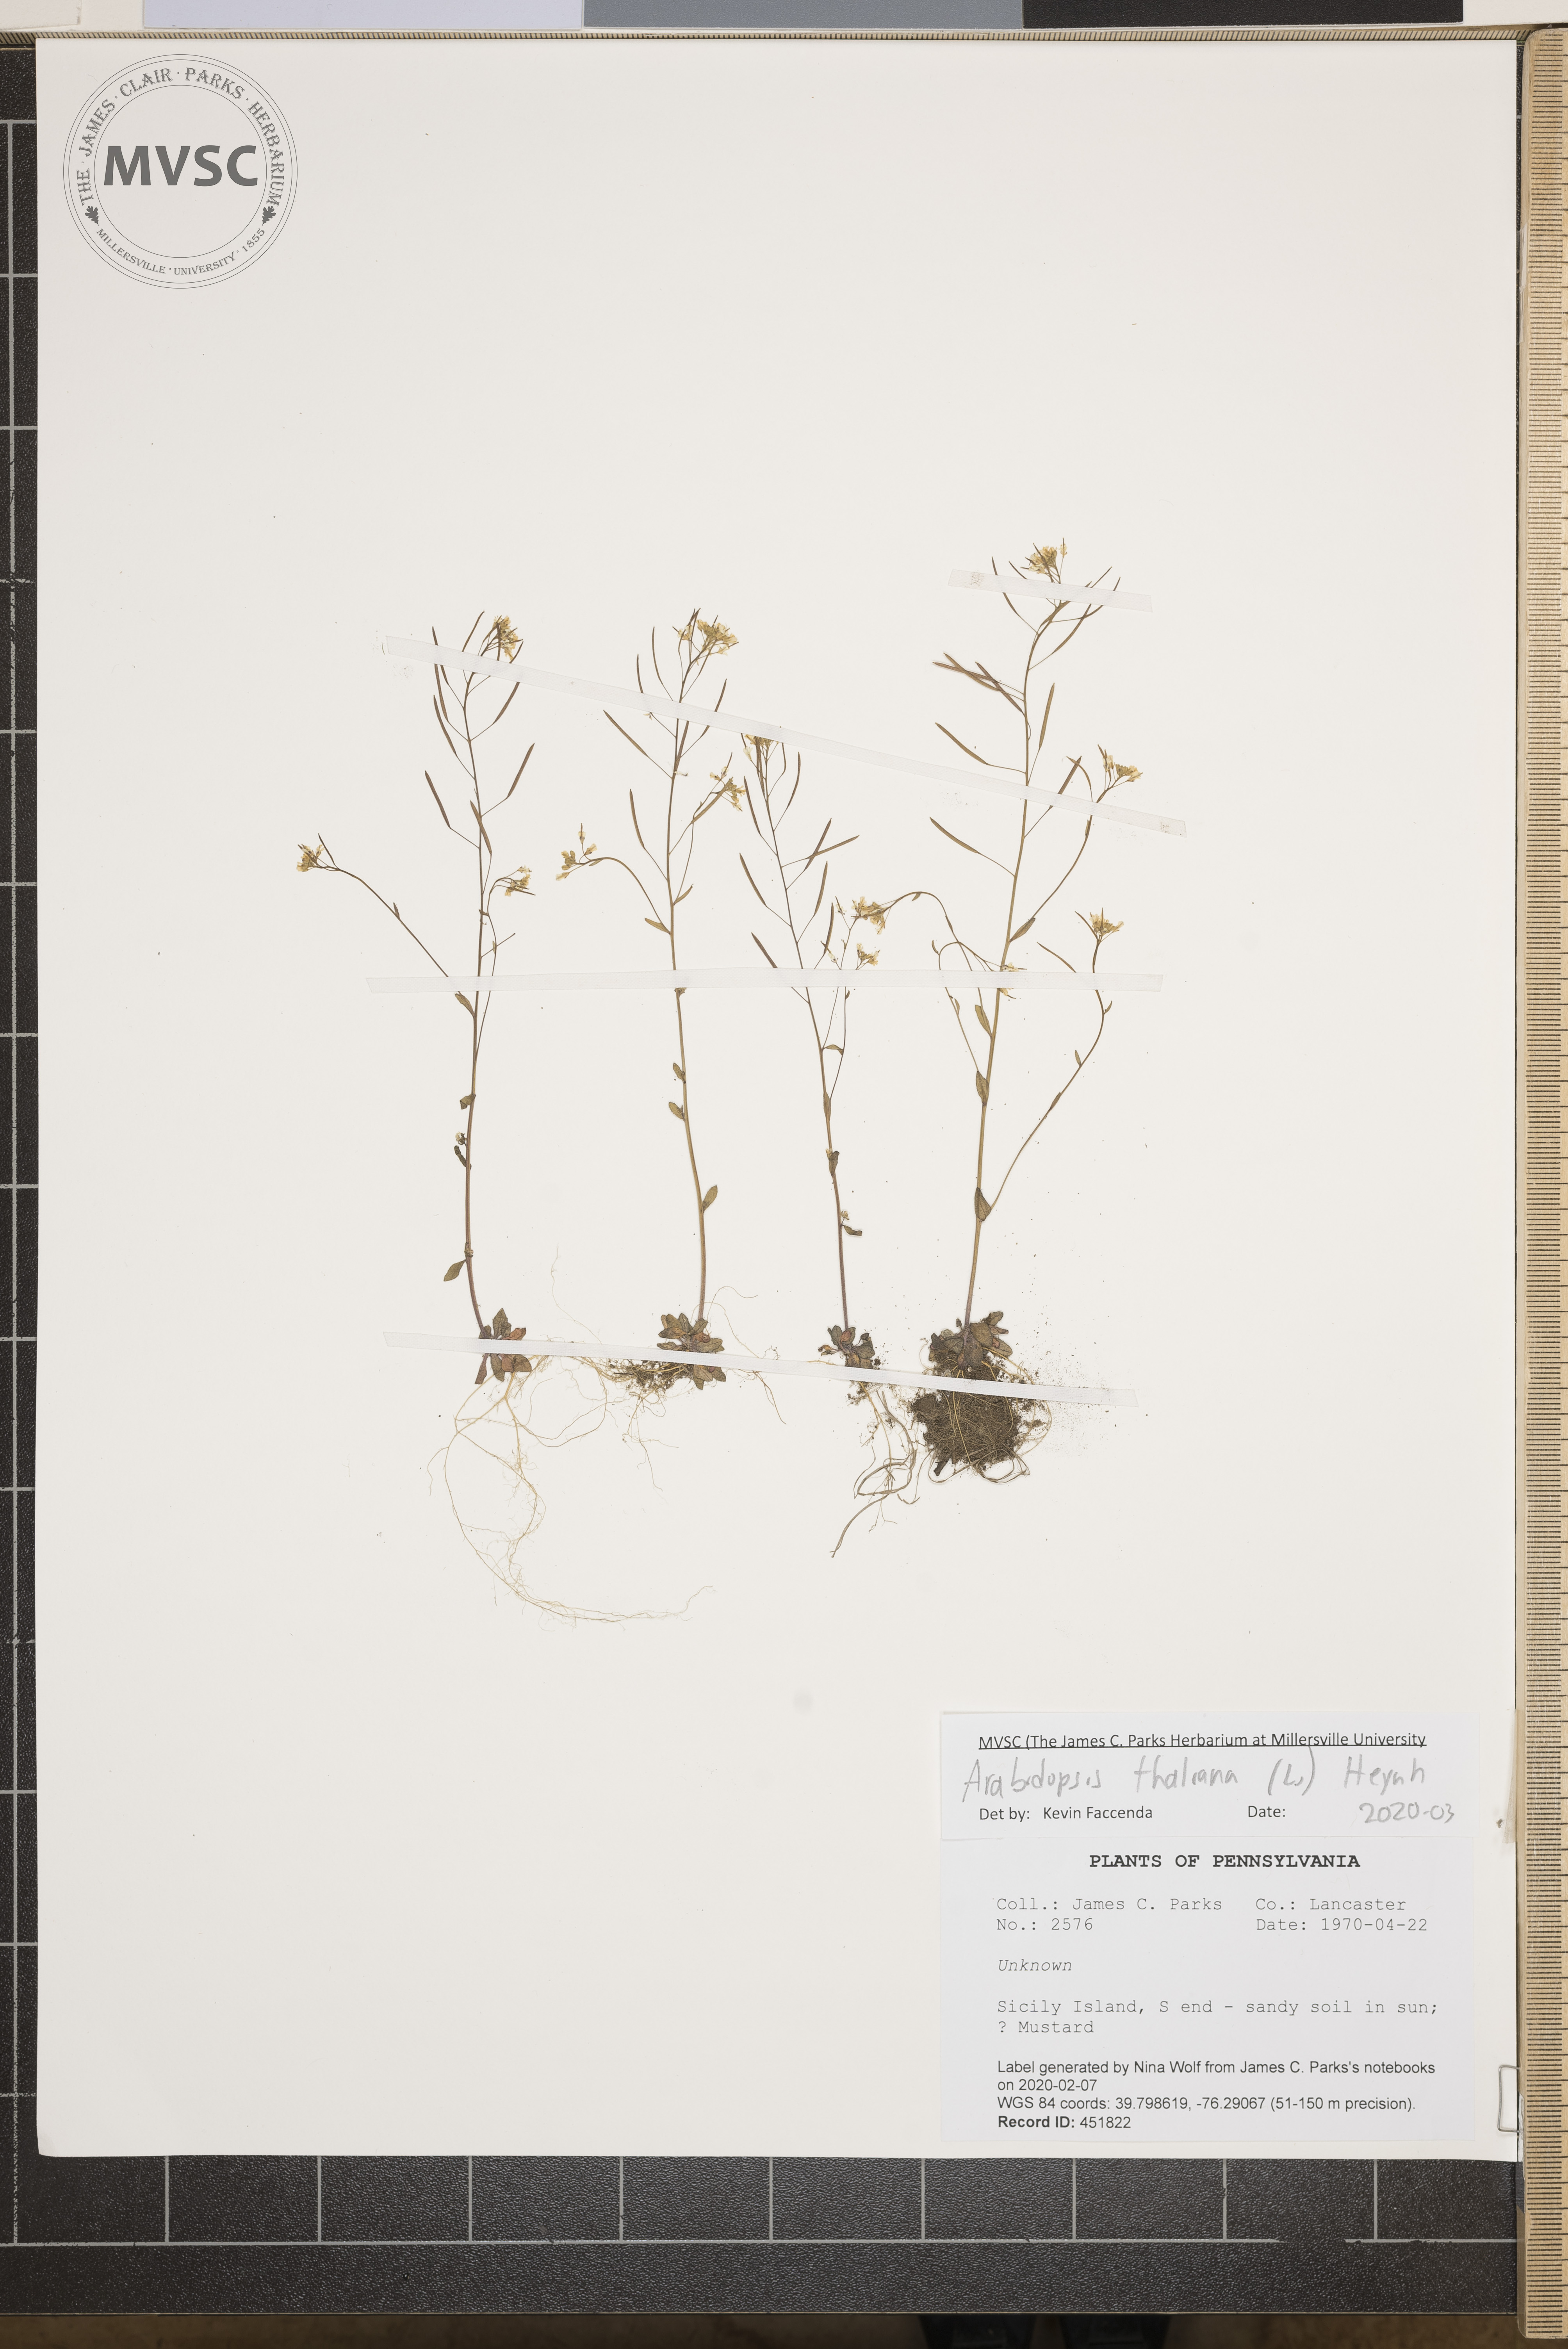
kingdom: Plantae
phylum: Tracheophyta
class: Magnoliopsida
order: Brassicales
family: Brassicaceae
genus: Arabidopsis
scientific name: Arabidopsis thaliana
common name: Thale cress
